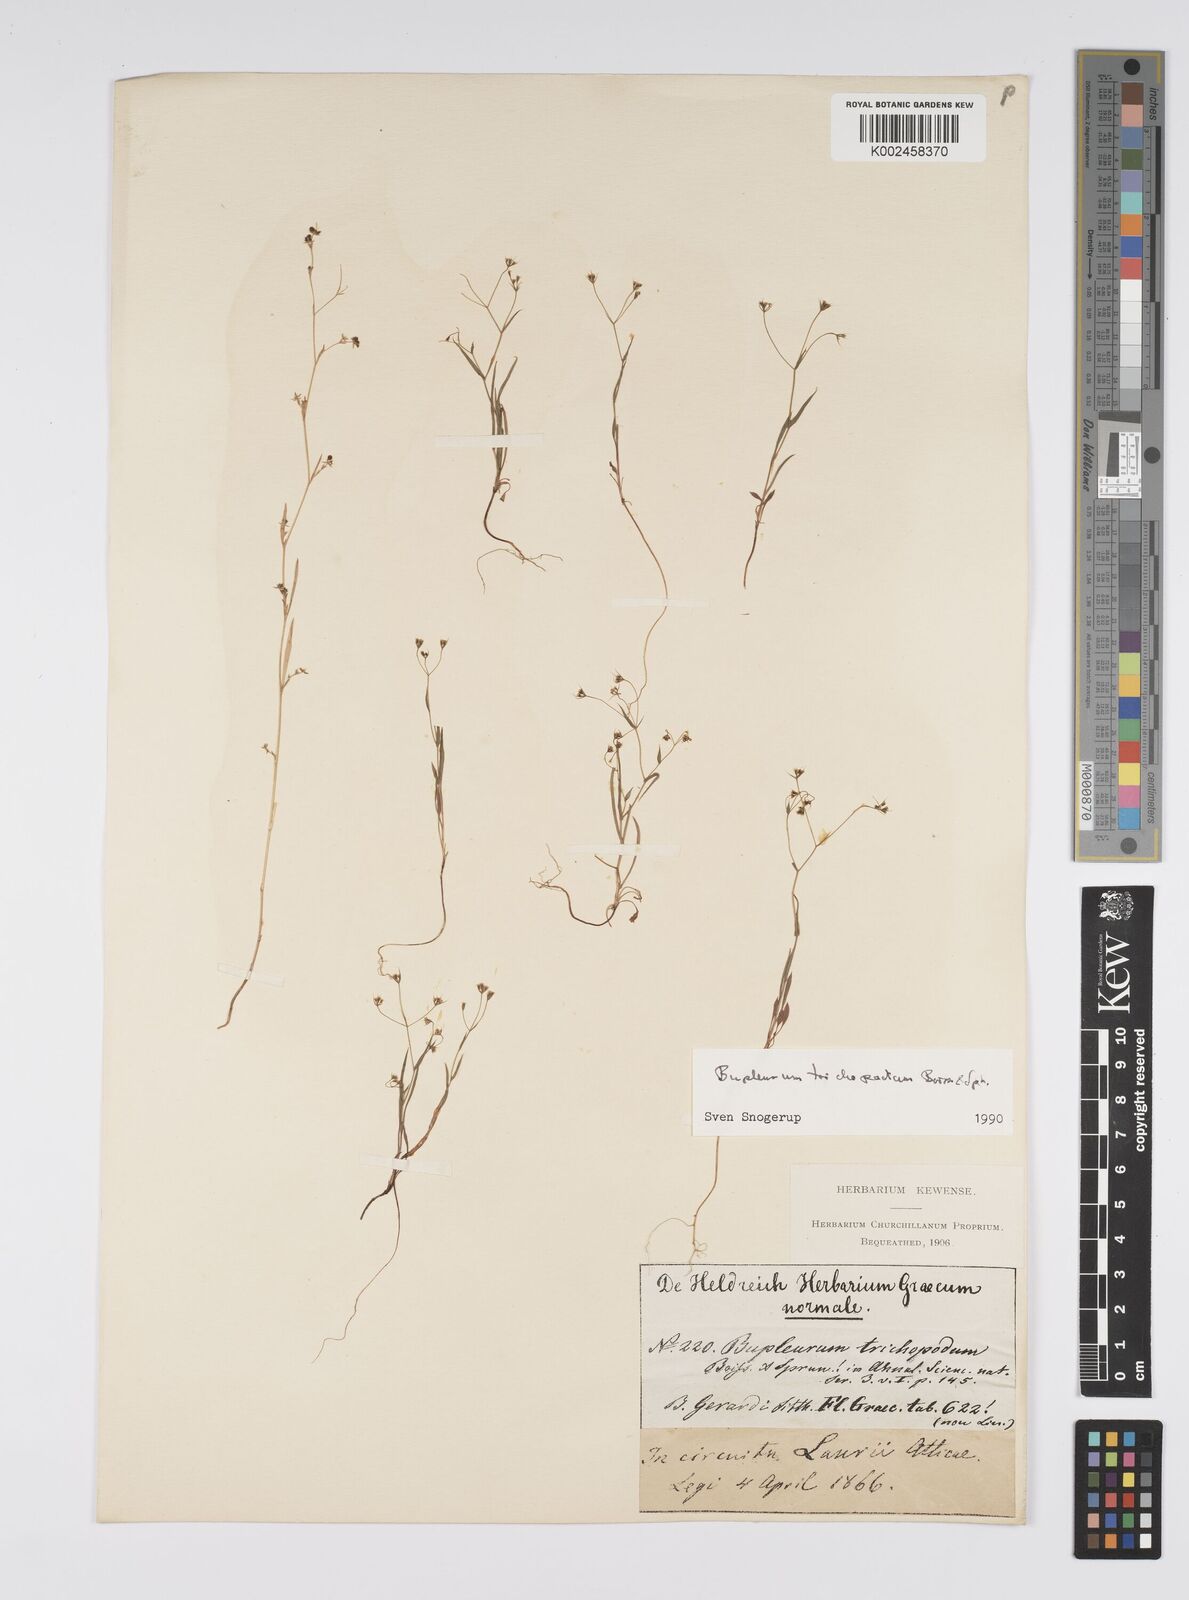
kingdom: Plantae
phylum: Tracheophyta
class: Magnoliopsida
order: Apiales
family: Apiaceae
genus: Bupleurum
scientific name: Bupleurum trichopodum
